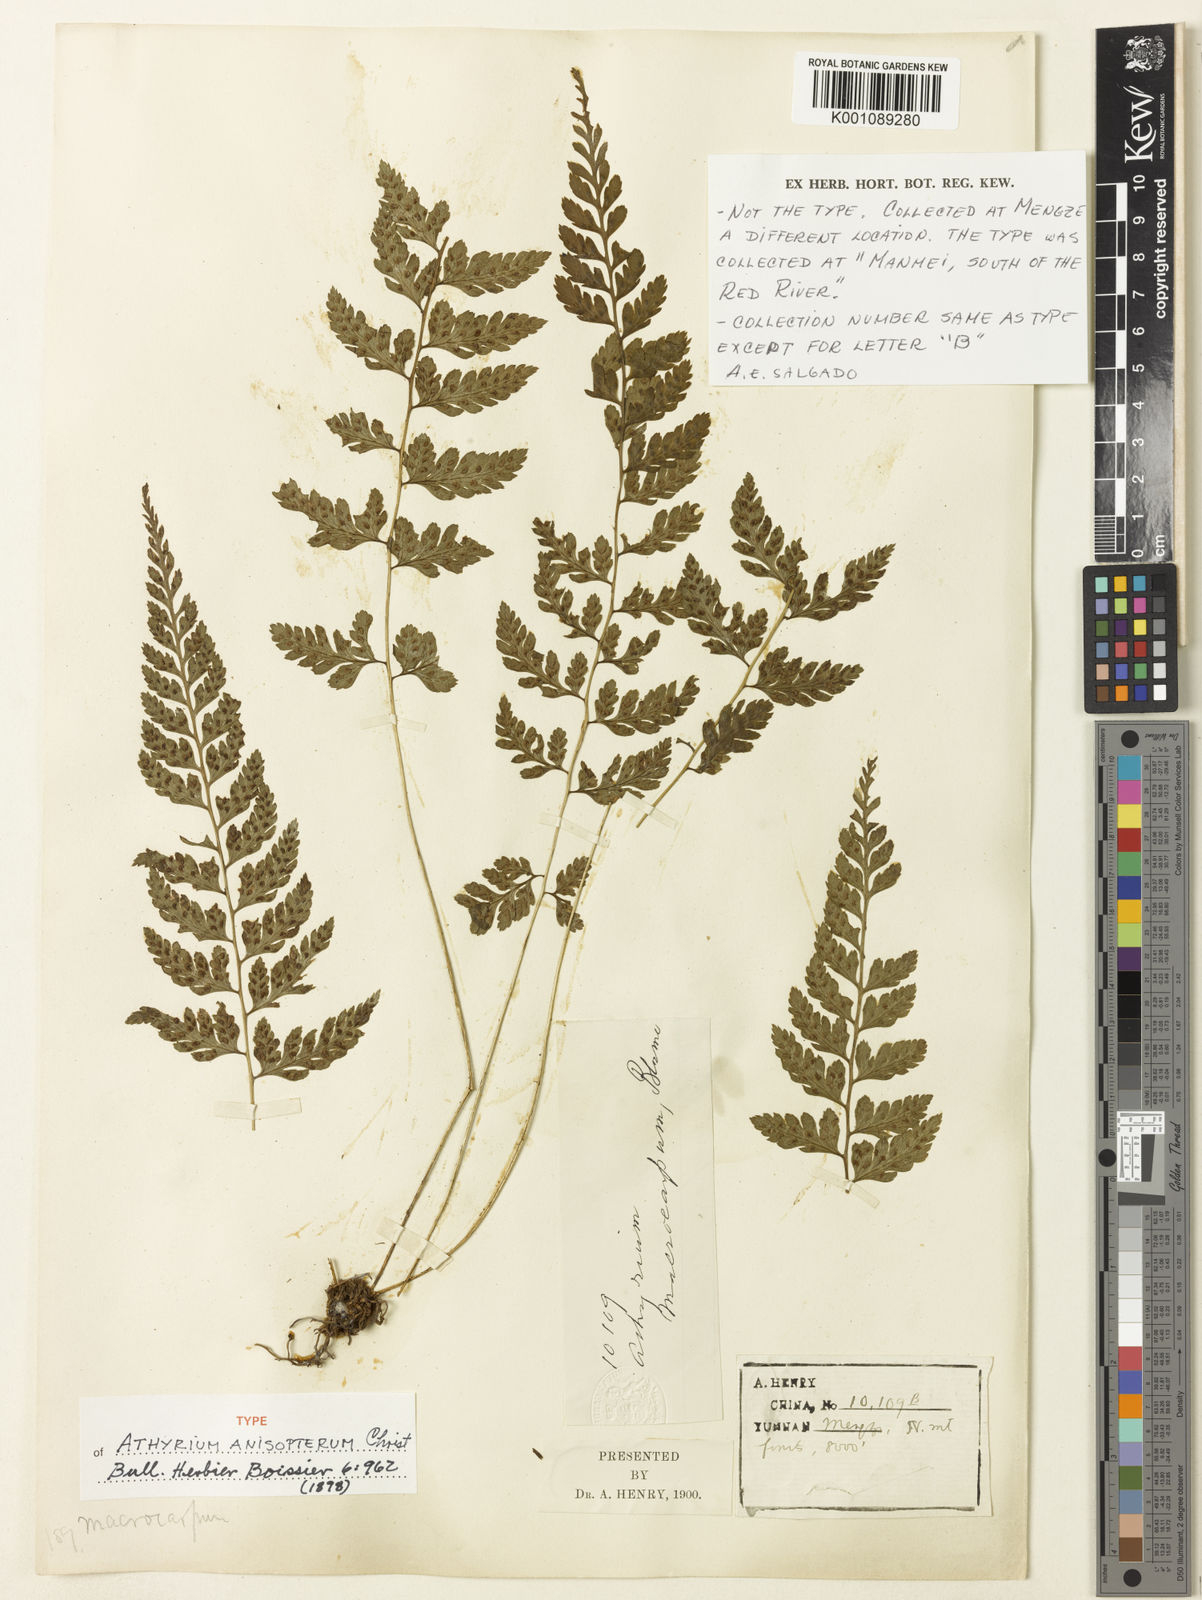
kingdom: Plantae
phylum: Tracheophyta
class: Polypodiopsida
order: Polypodiales
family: Athyriaceae
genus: Athyrium
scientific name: Athyrium anisopterum
